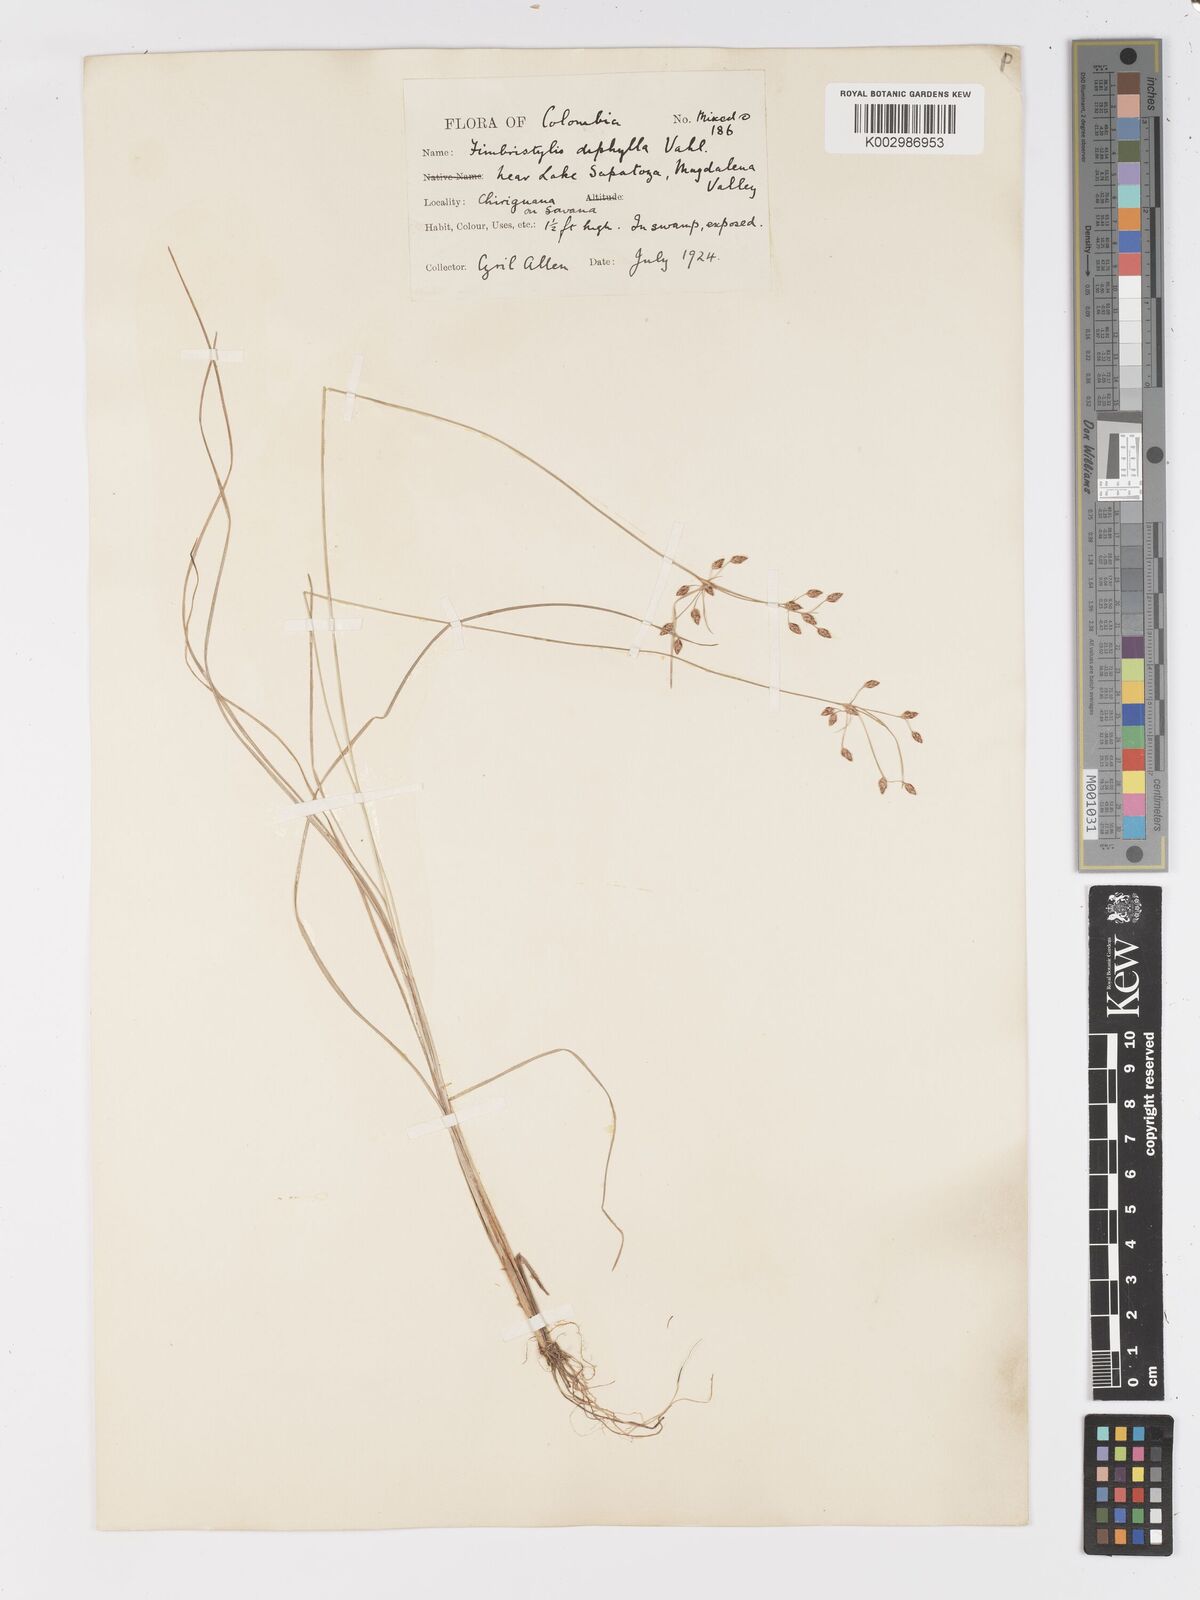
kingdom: Plantae
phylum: Tracheophyta
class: Liliopsida
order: Poales
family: Cyperaceae
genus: Fimbristylis
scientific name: Fimbristylis dichotoma
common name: Forked fimbry
